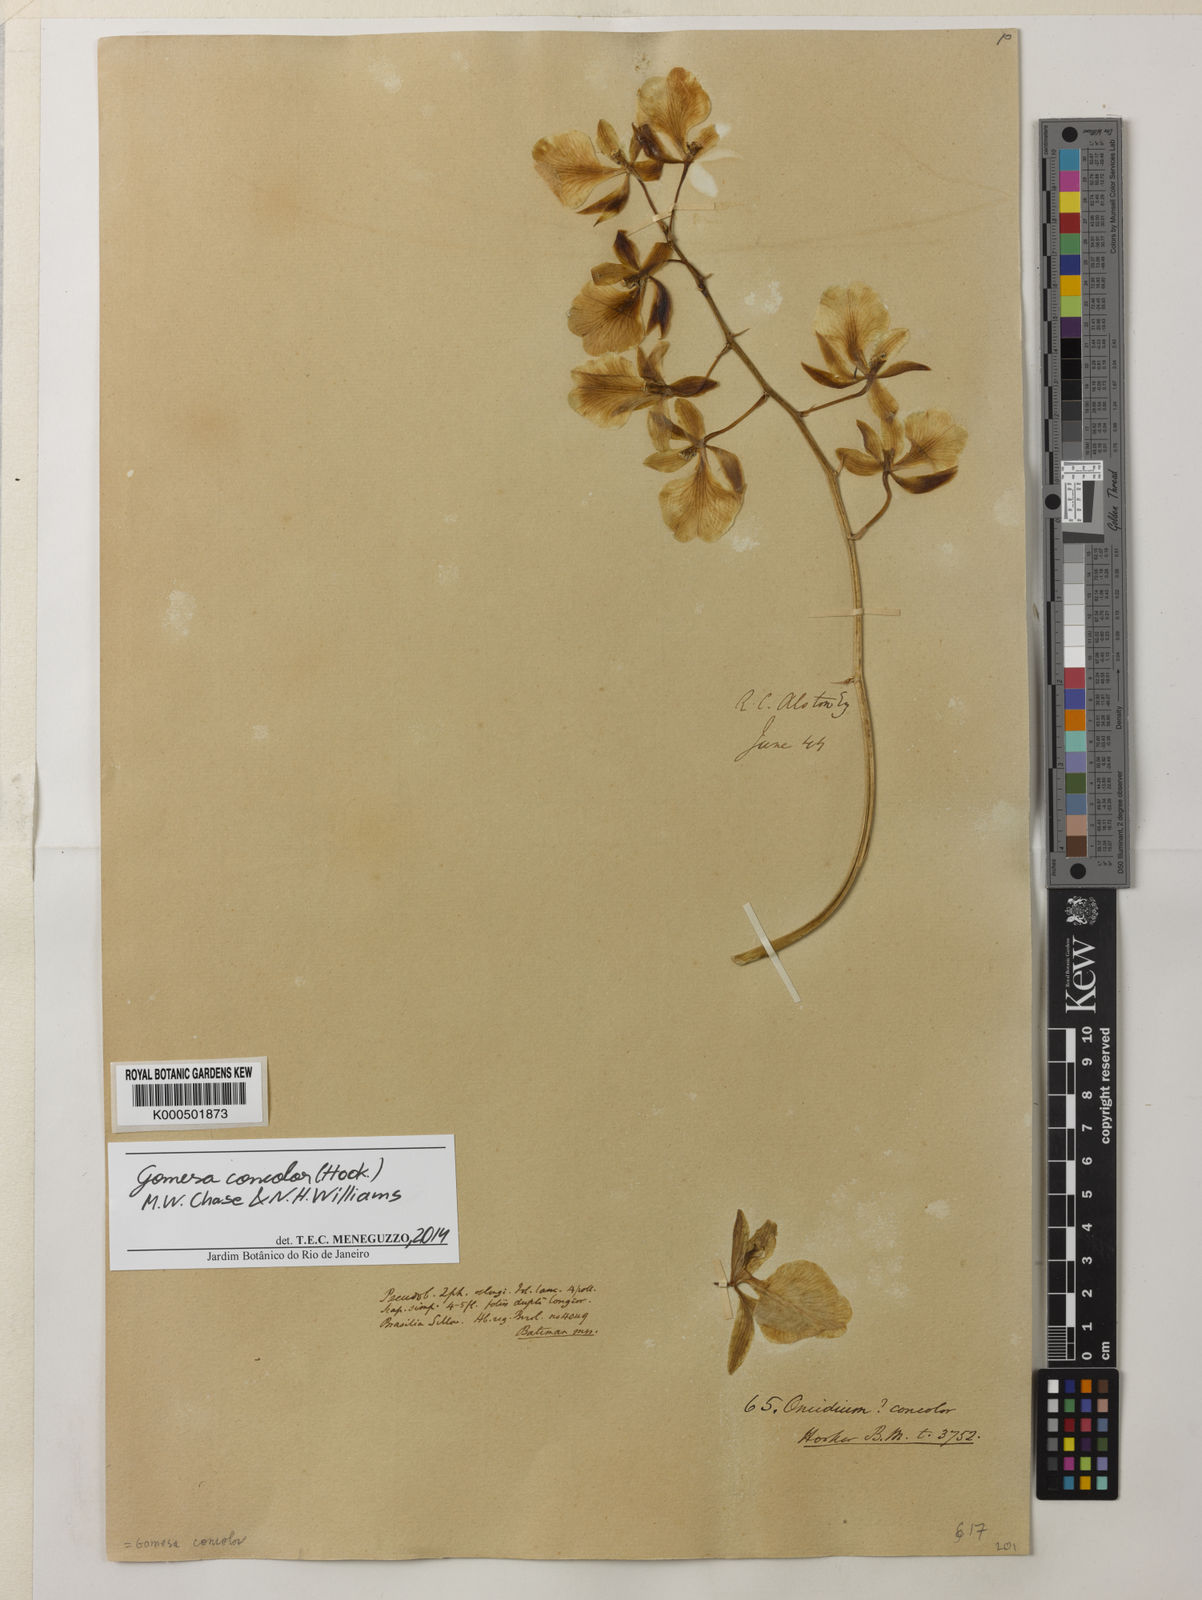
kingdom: Plantae
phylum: Tracheophyta
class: Liliopsida
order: Asparagales
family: Orchidaceae
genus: Gomesa
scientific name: Gomesa concolor
